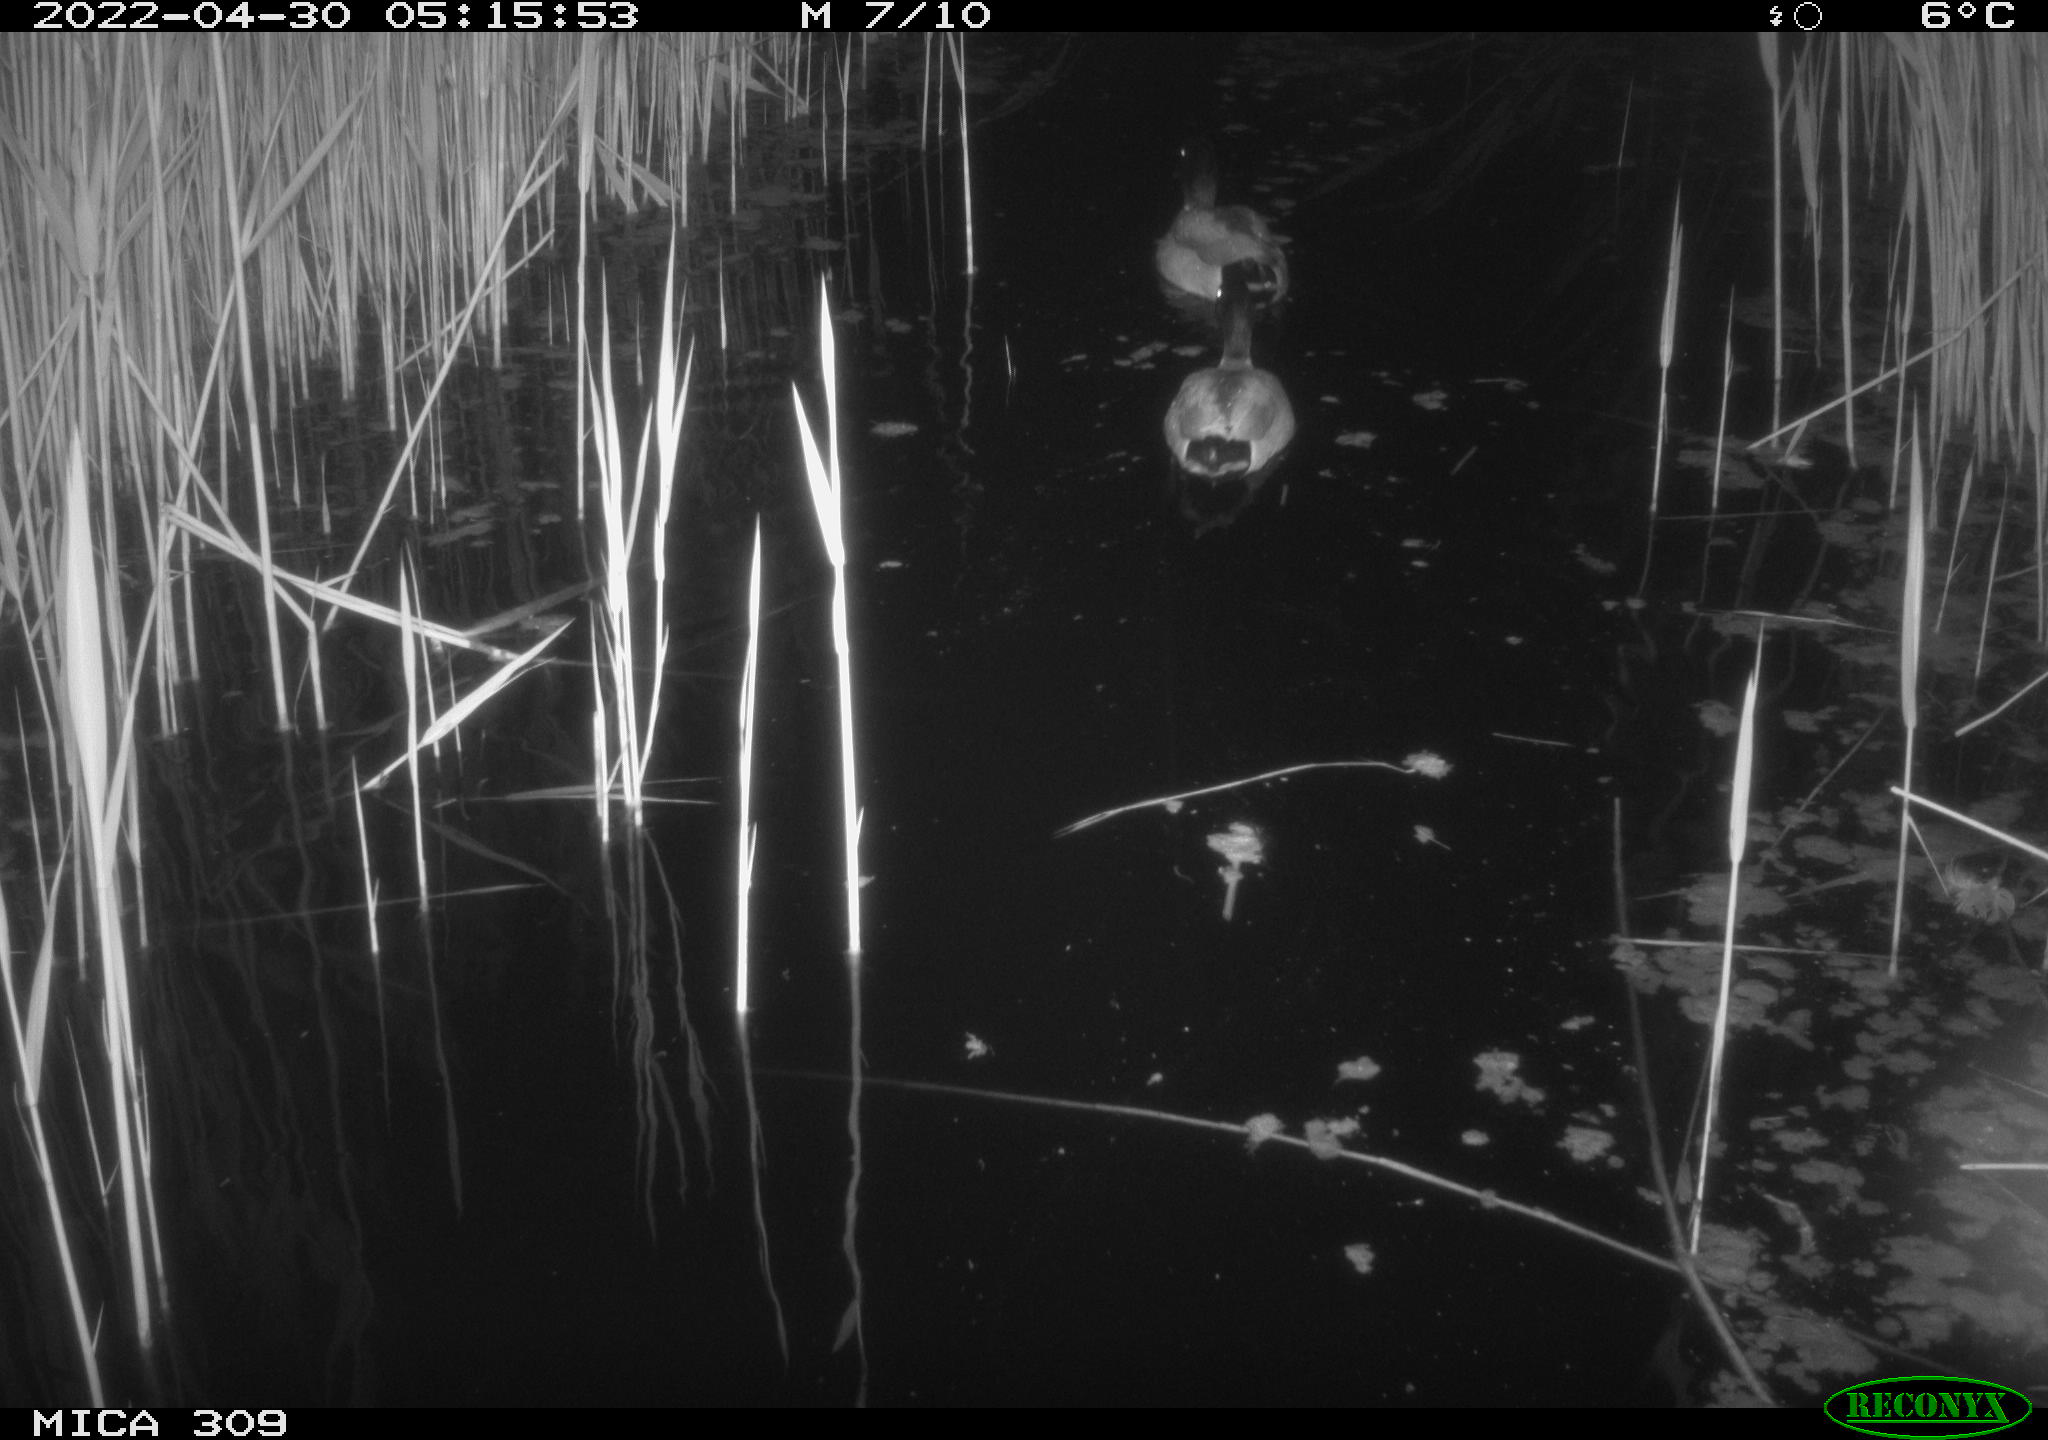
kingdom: Animalia
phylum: Chordata
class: Aves
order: Anseriformes
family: Anatidae
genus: Anas
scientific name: Anas platyrhynchos
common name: Mallard
